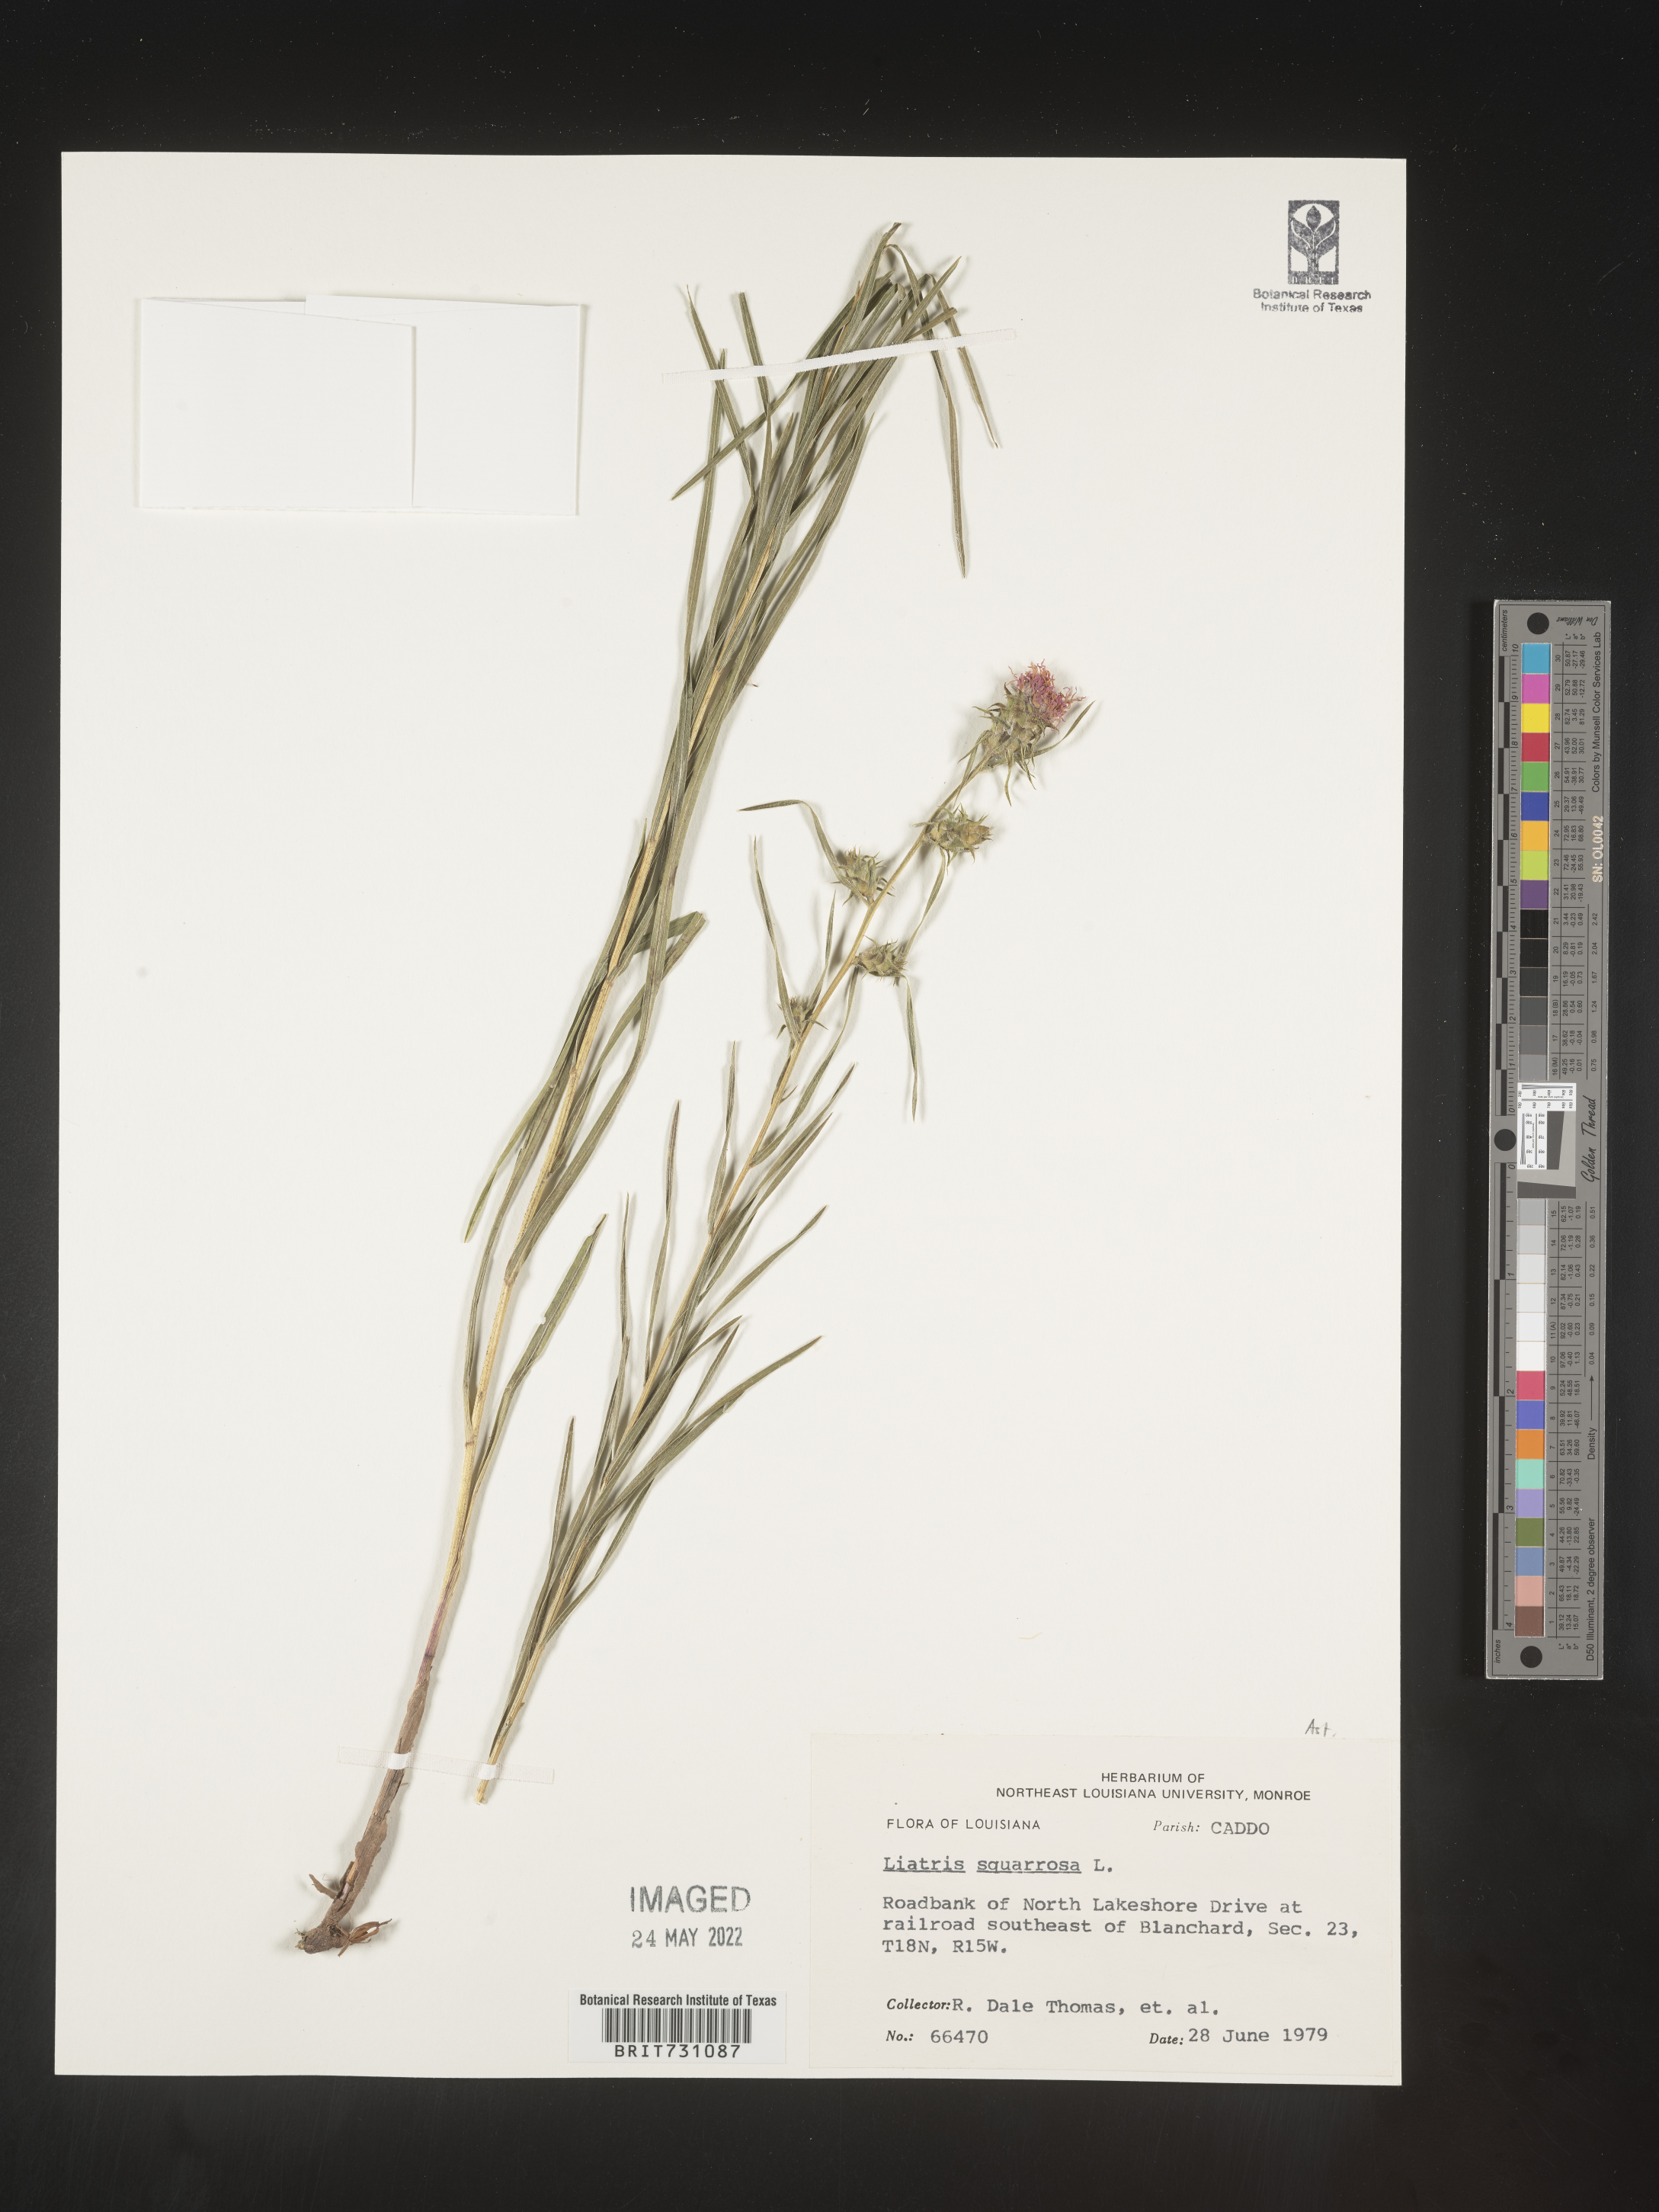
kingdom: Plantae
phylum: Tracheophyta
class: Magnoliopsida
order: Asterales
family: Asteraceae
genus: Liatris
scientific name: Liatris squarrosa
